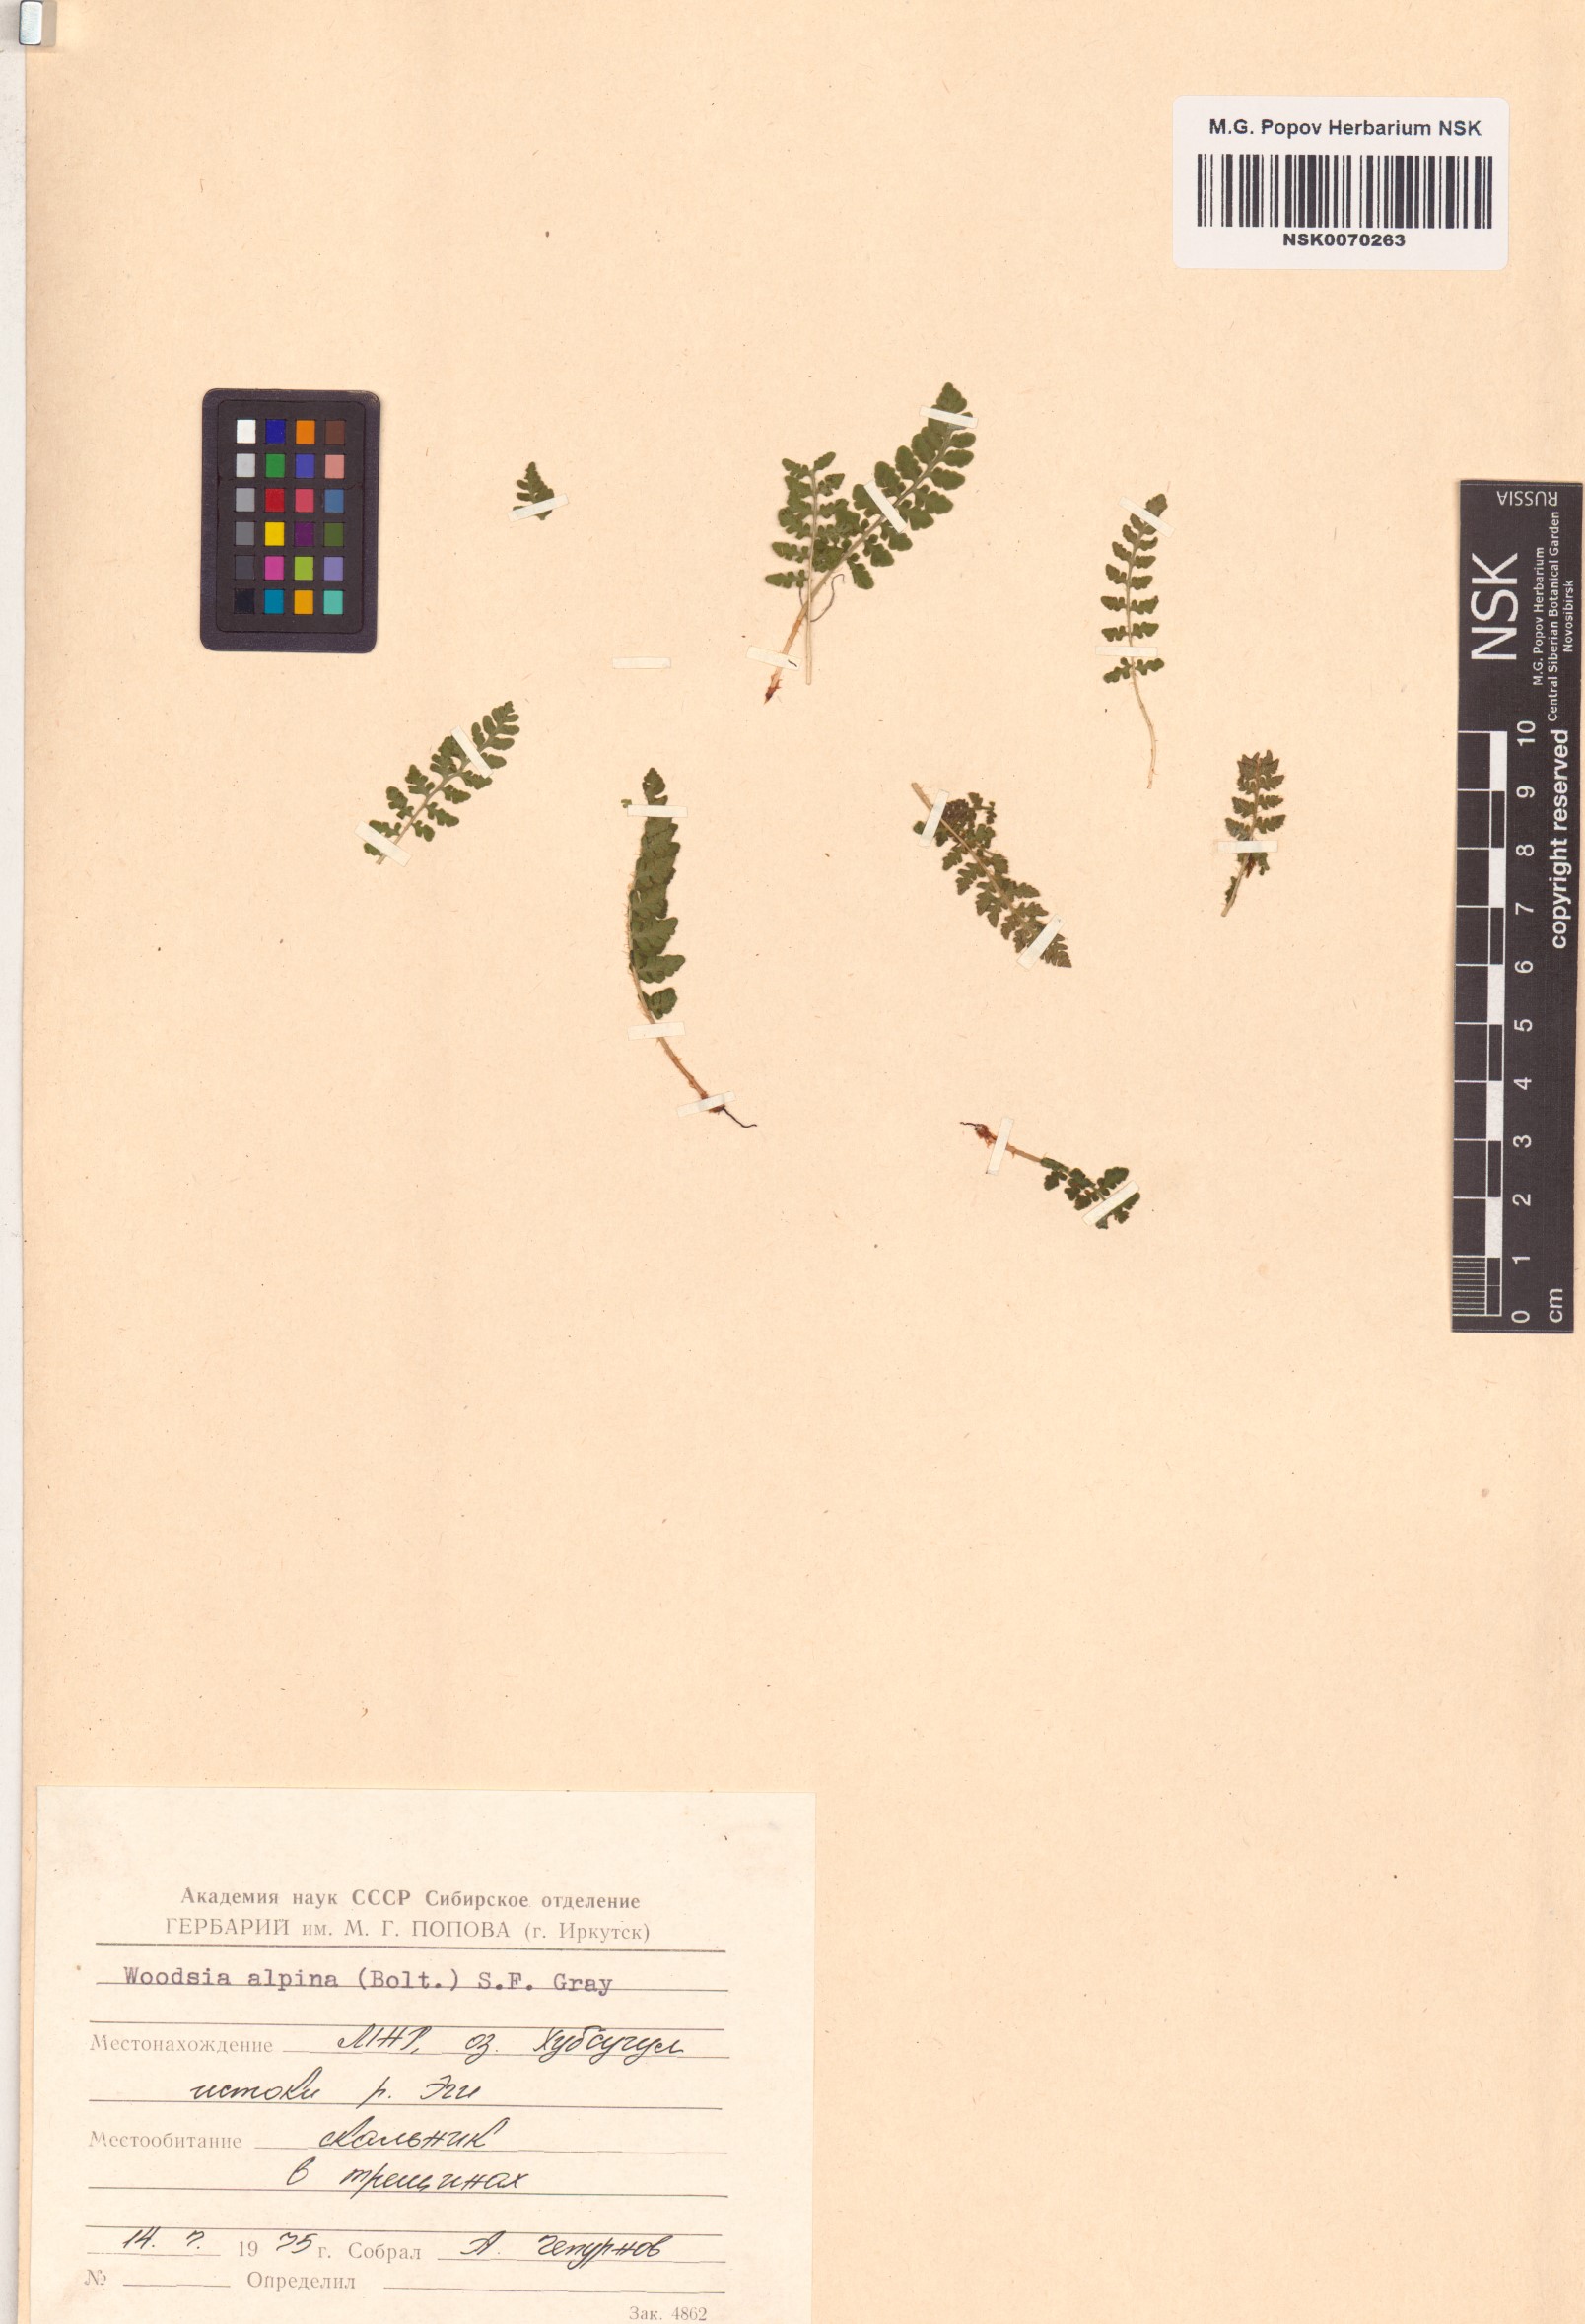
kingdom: Plantae
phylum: Tracheophyta
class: Polypodiopsida
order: Polypodiales
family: Woodsiaceae
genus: Woodsia
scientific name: Woodsia alpina
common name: Alpine woodsia
